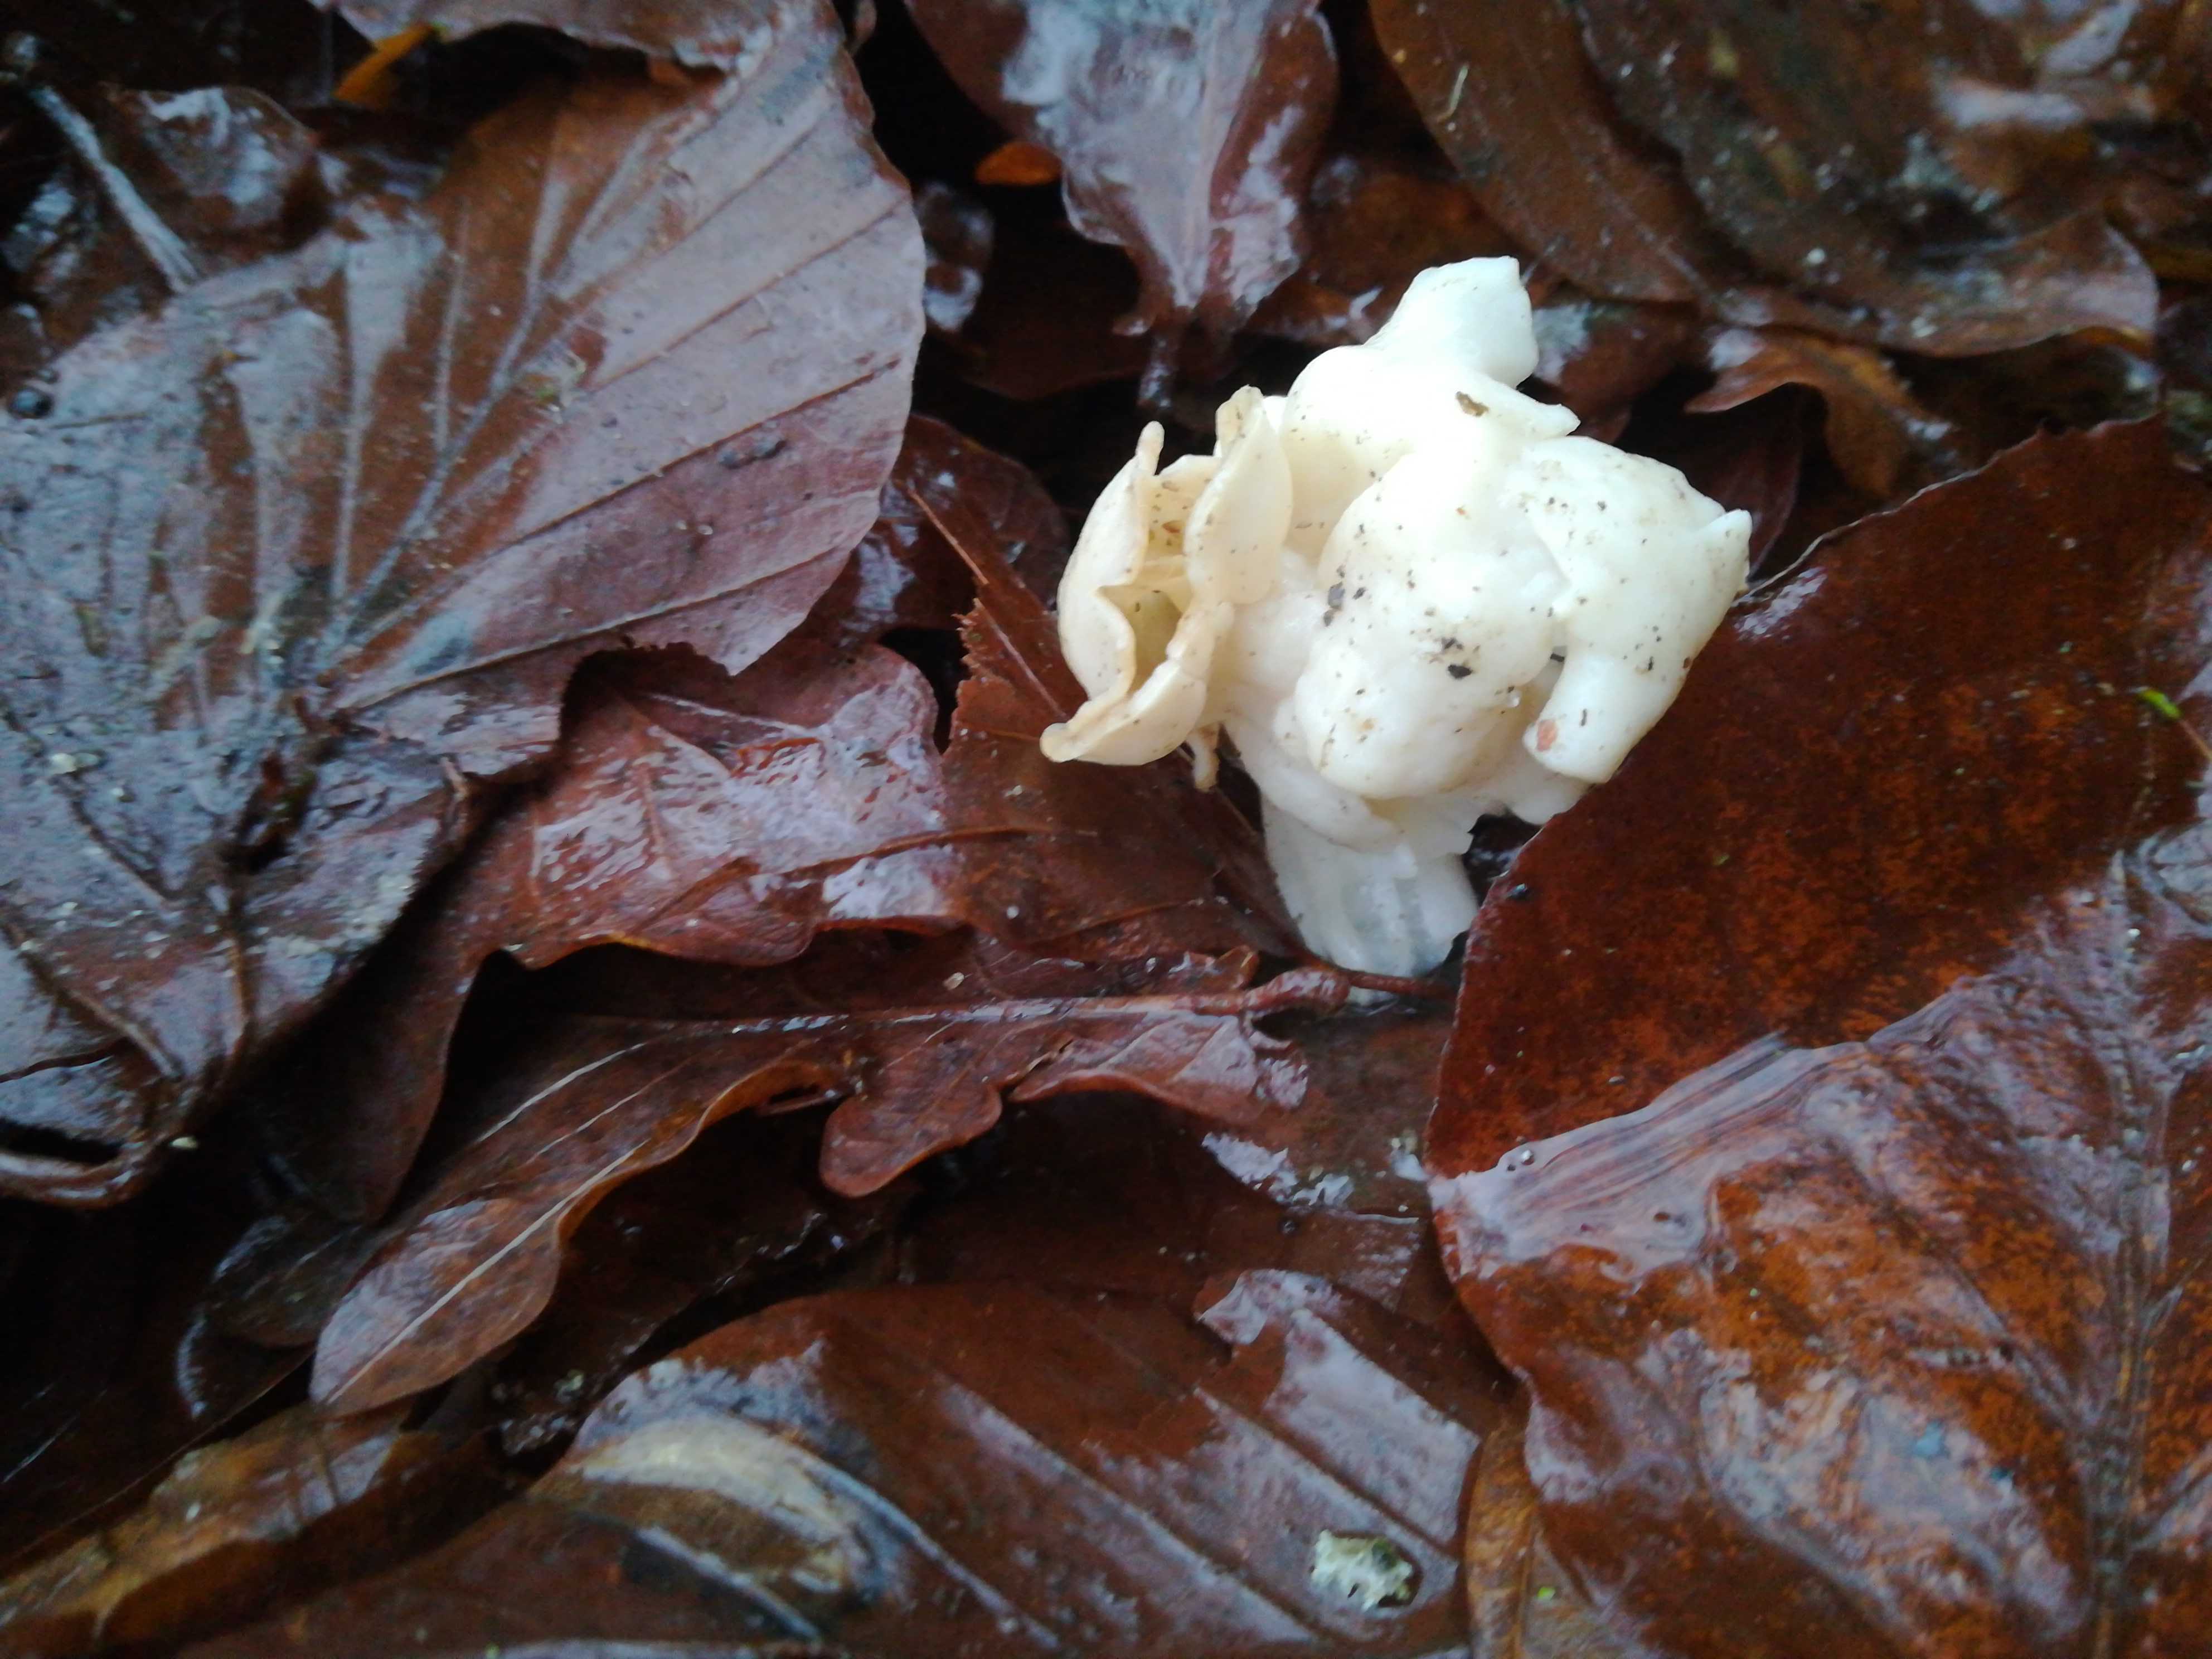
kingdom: Fungi
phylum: Ascomycota
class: Pezizomycetes
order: Pezizales
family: Helvellaceae
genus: Helvella
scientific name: Helvella crispa
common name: kruset foldhat
